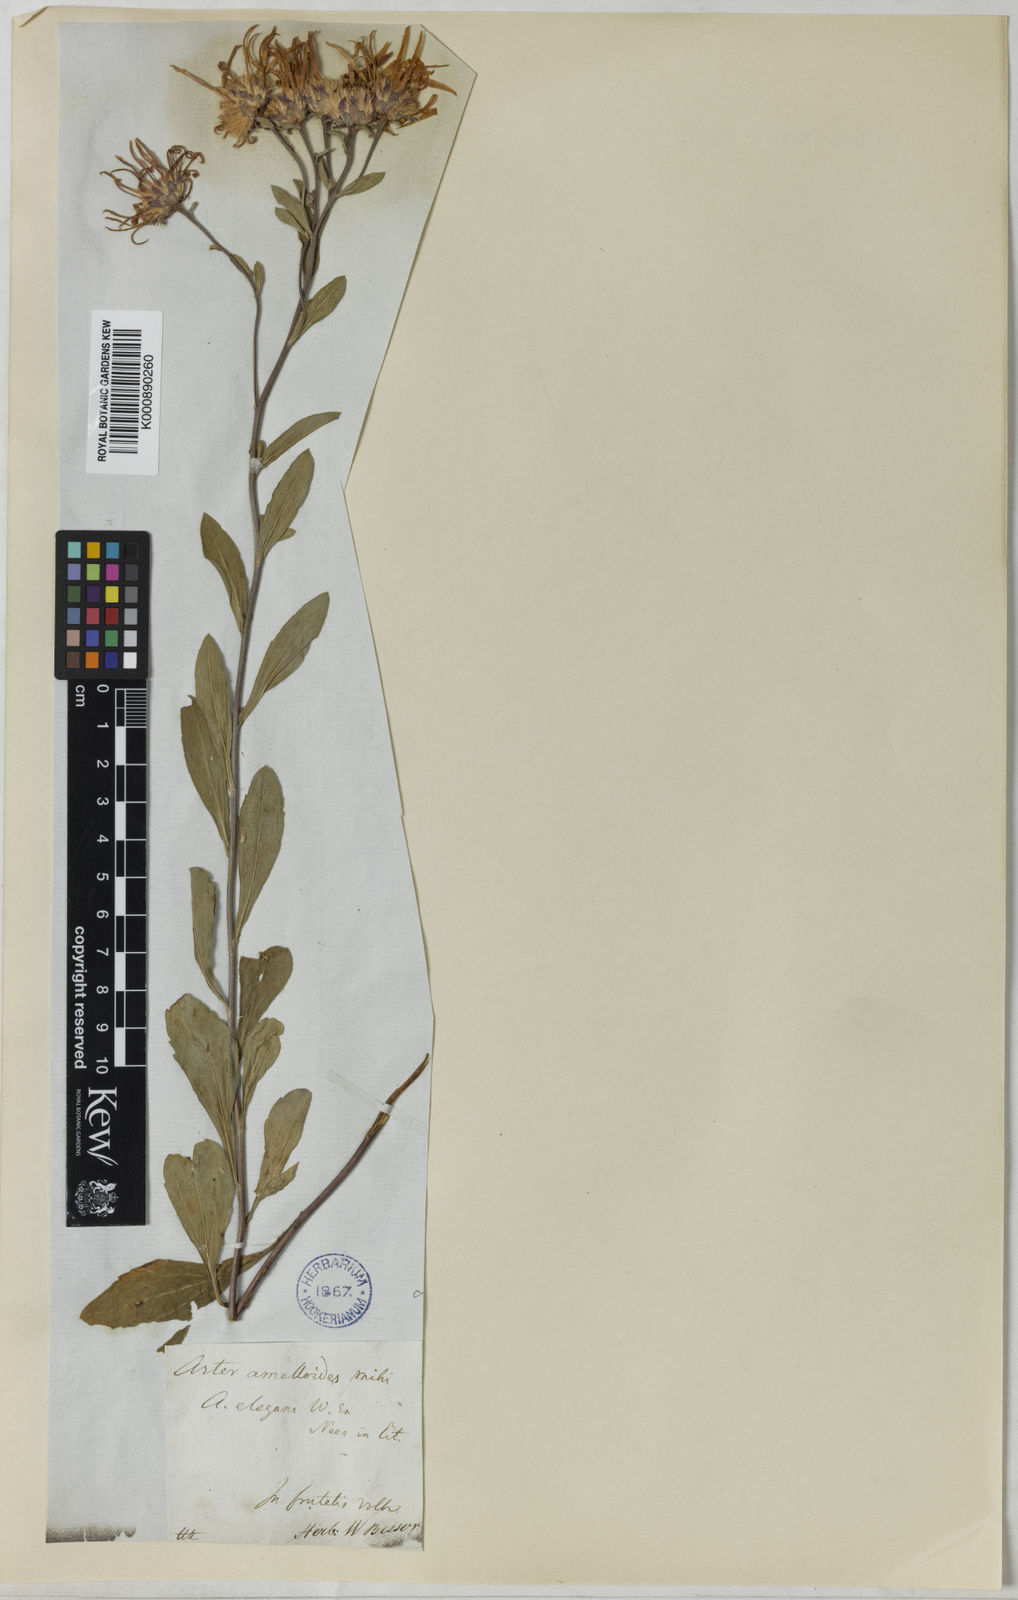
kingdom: Plantae
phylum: Tracheophyta
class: Magnoliopsida
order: Asterales
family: Asteraceae
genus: Aster
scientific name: Aster
